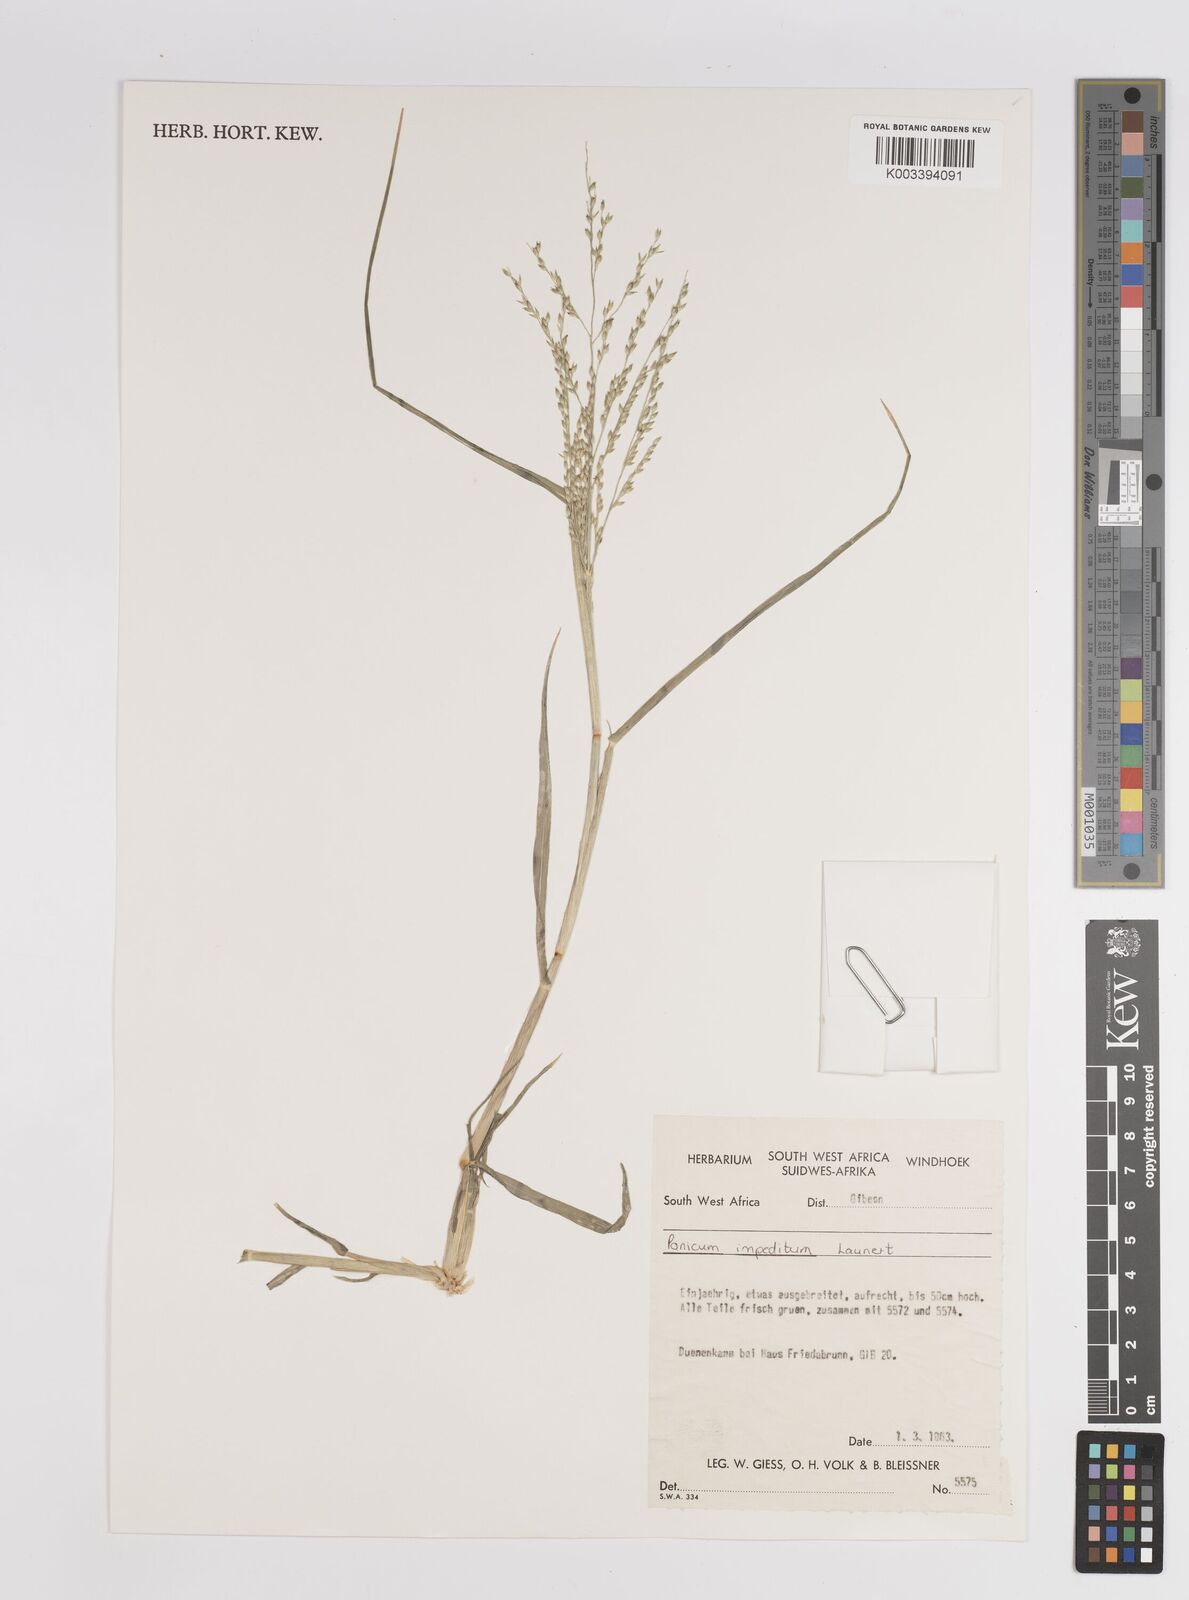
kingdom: Plantae
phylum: Tracheophyta
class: Liliopsida
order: Poales
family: Poaceae
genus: Panicum
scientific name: Panicum impeditum
